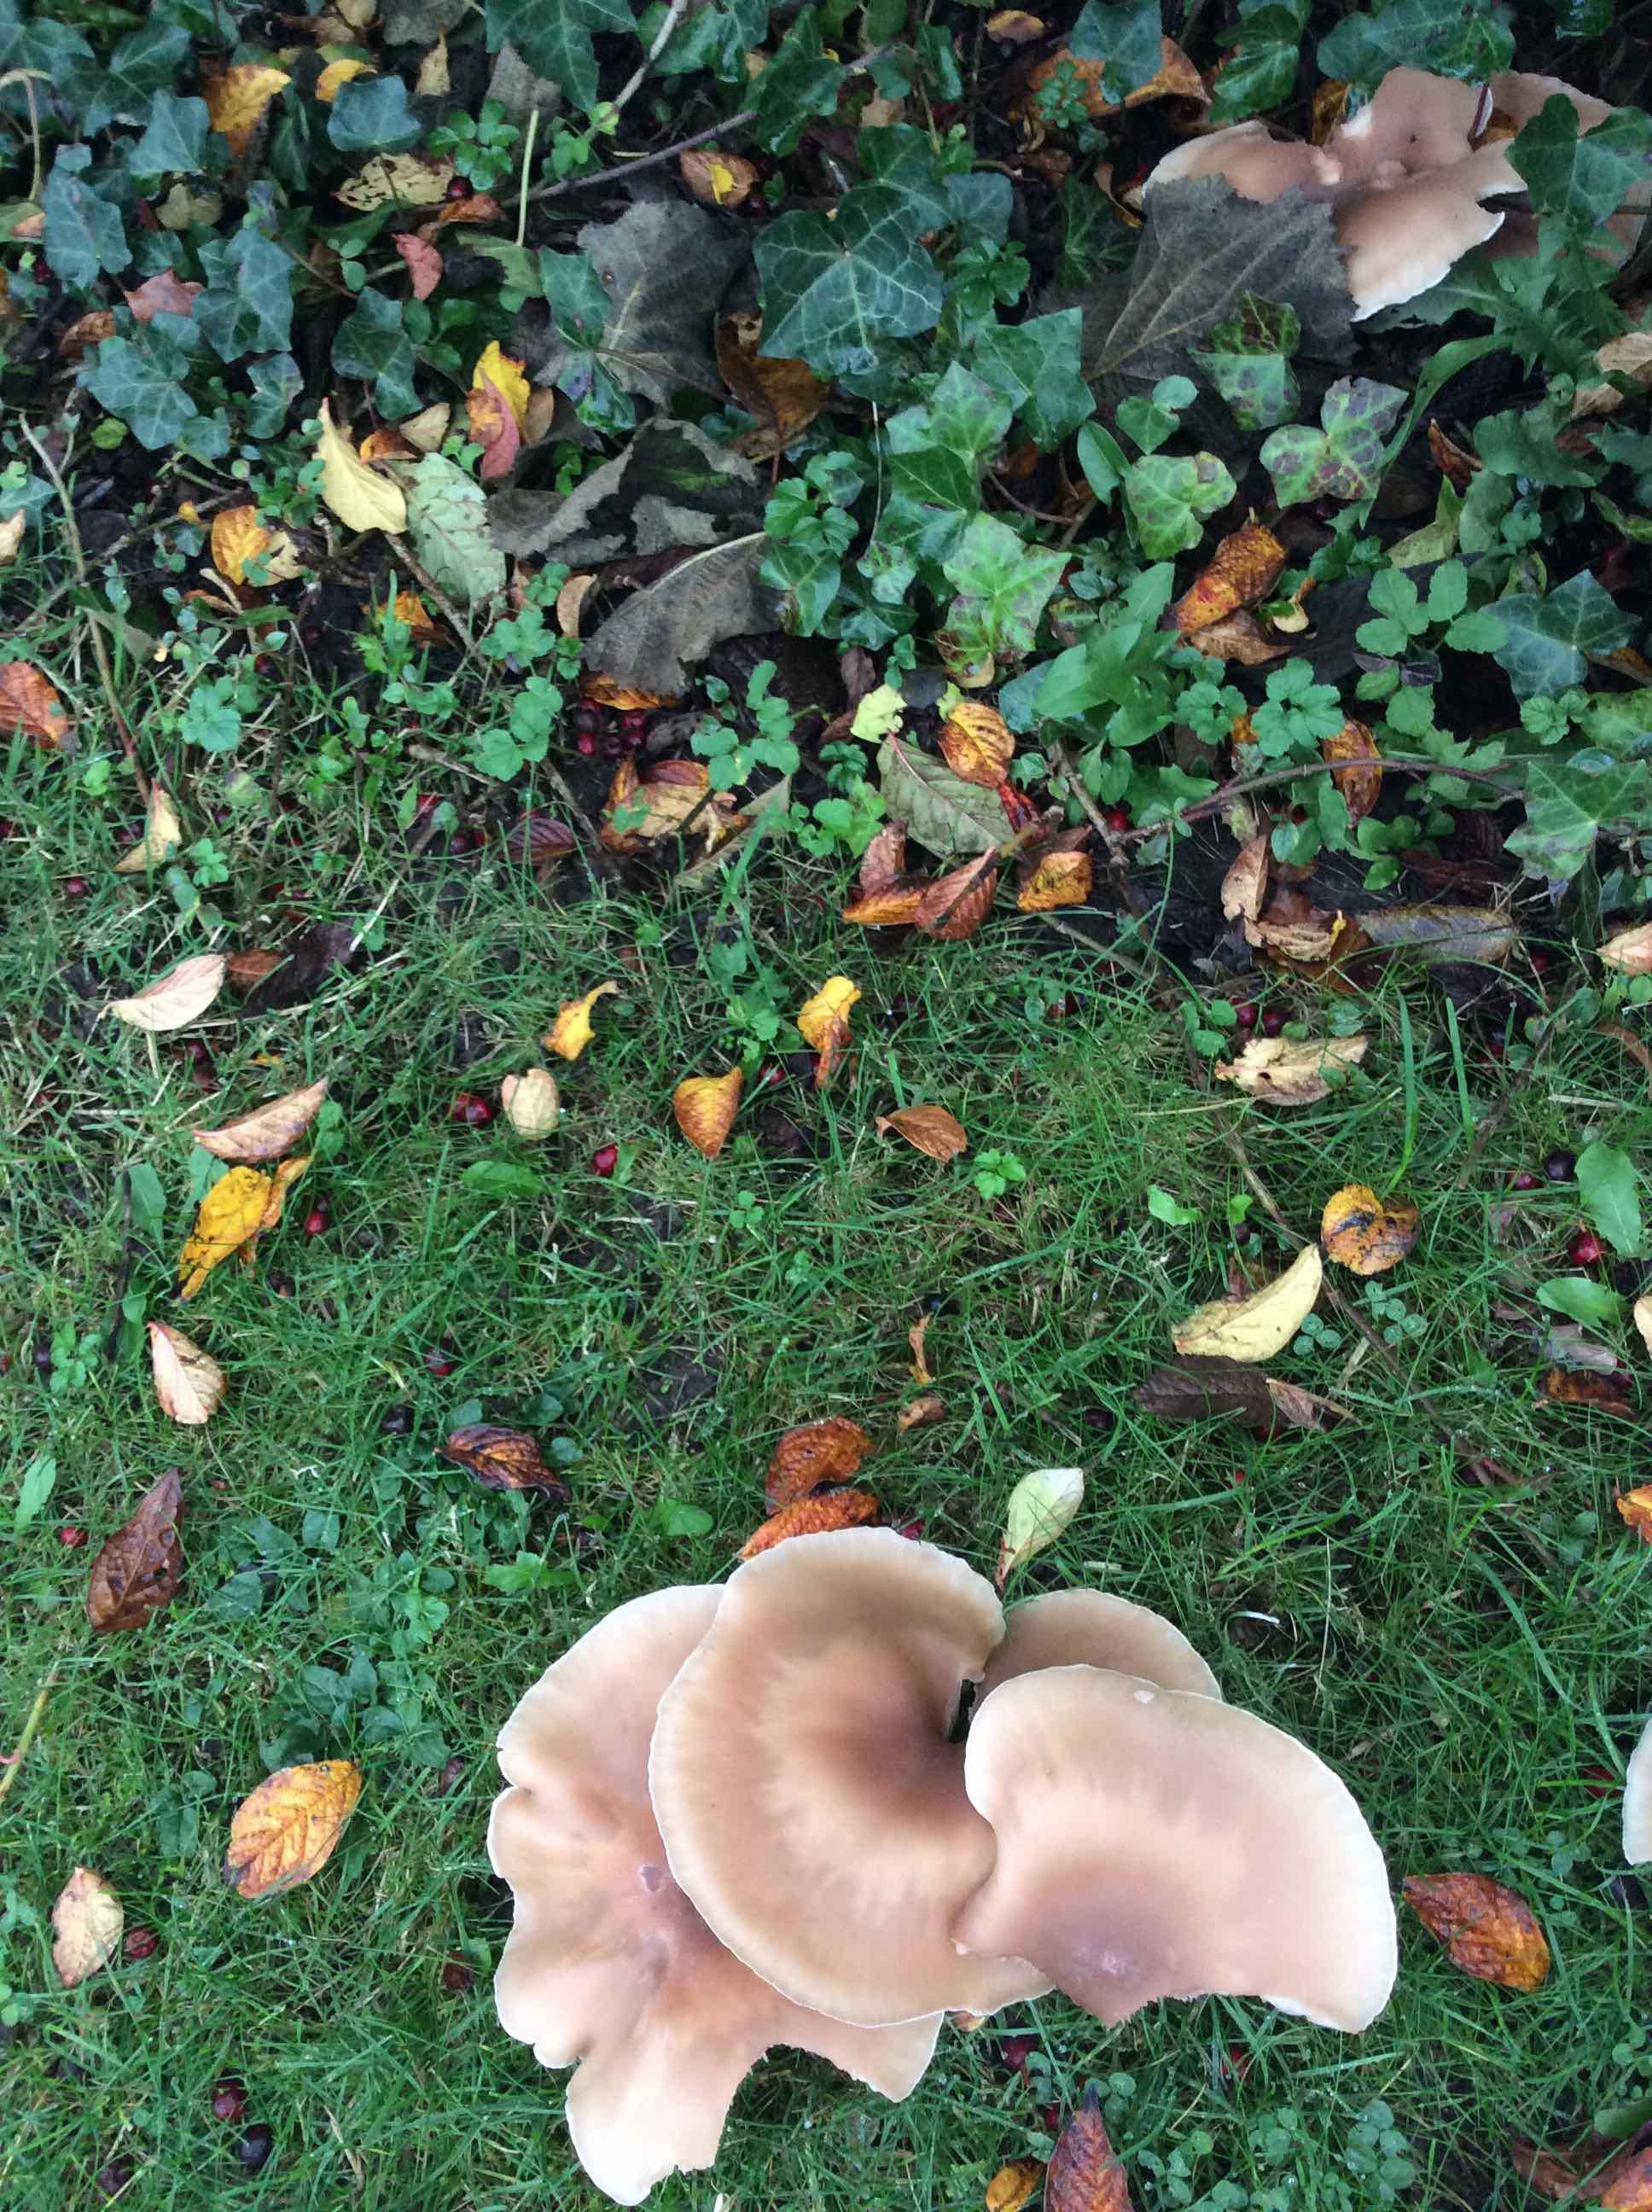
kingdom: Fungi
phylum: Basidiomycota
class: Agaricomycetes
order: Agaricales
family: Tricholomataceae
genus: Lepista
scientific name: Lepista personata
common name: bleg hekseringshat
